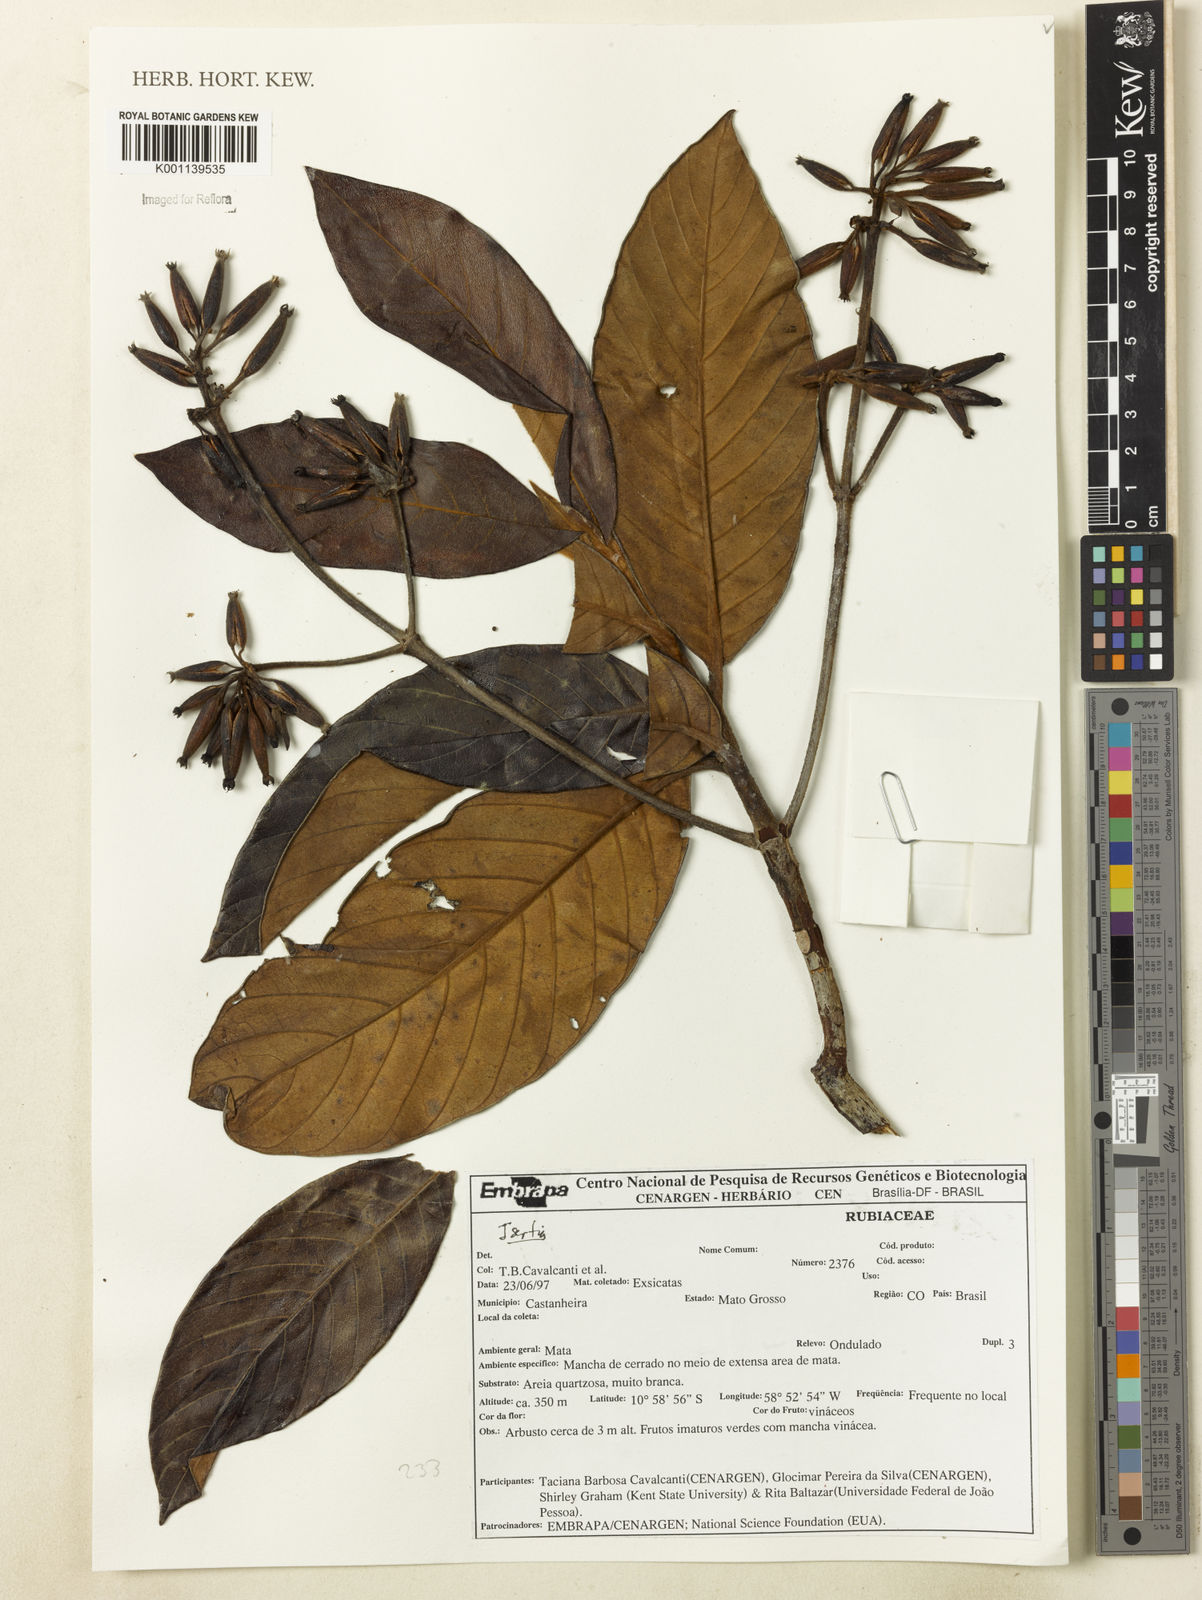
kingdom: Plantae
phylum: Tracheophyta
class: Magnoliopsida
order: Gentianales
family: Rubiaceae
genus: Isertia
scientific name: Isertia
